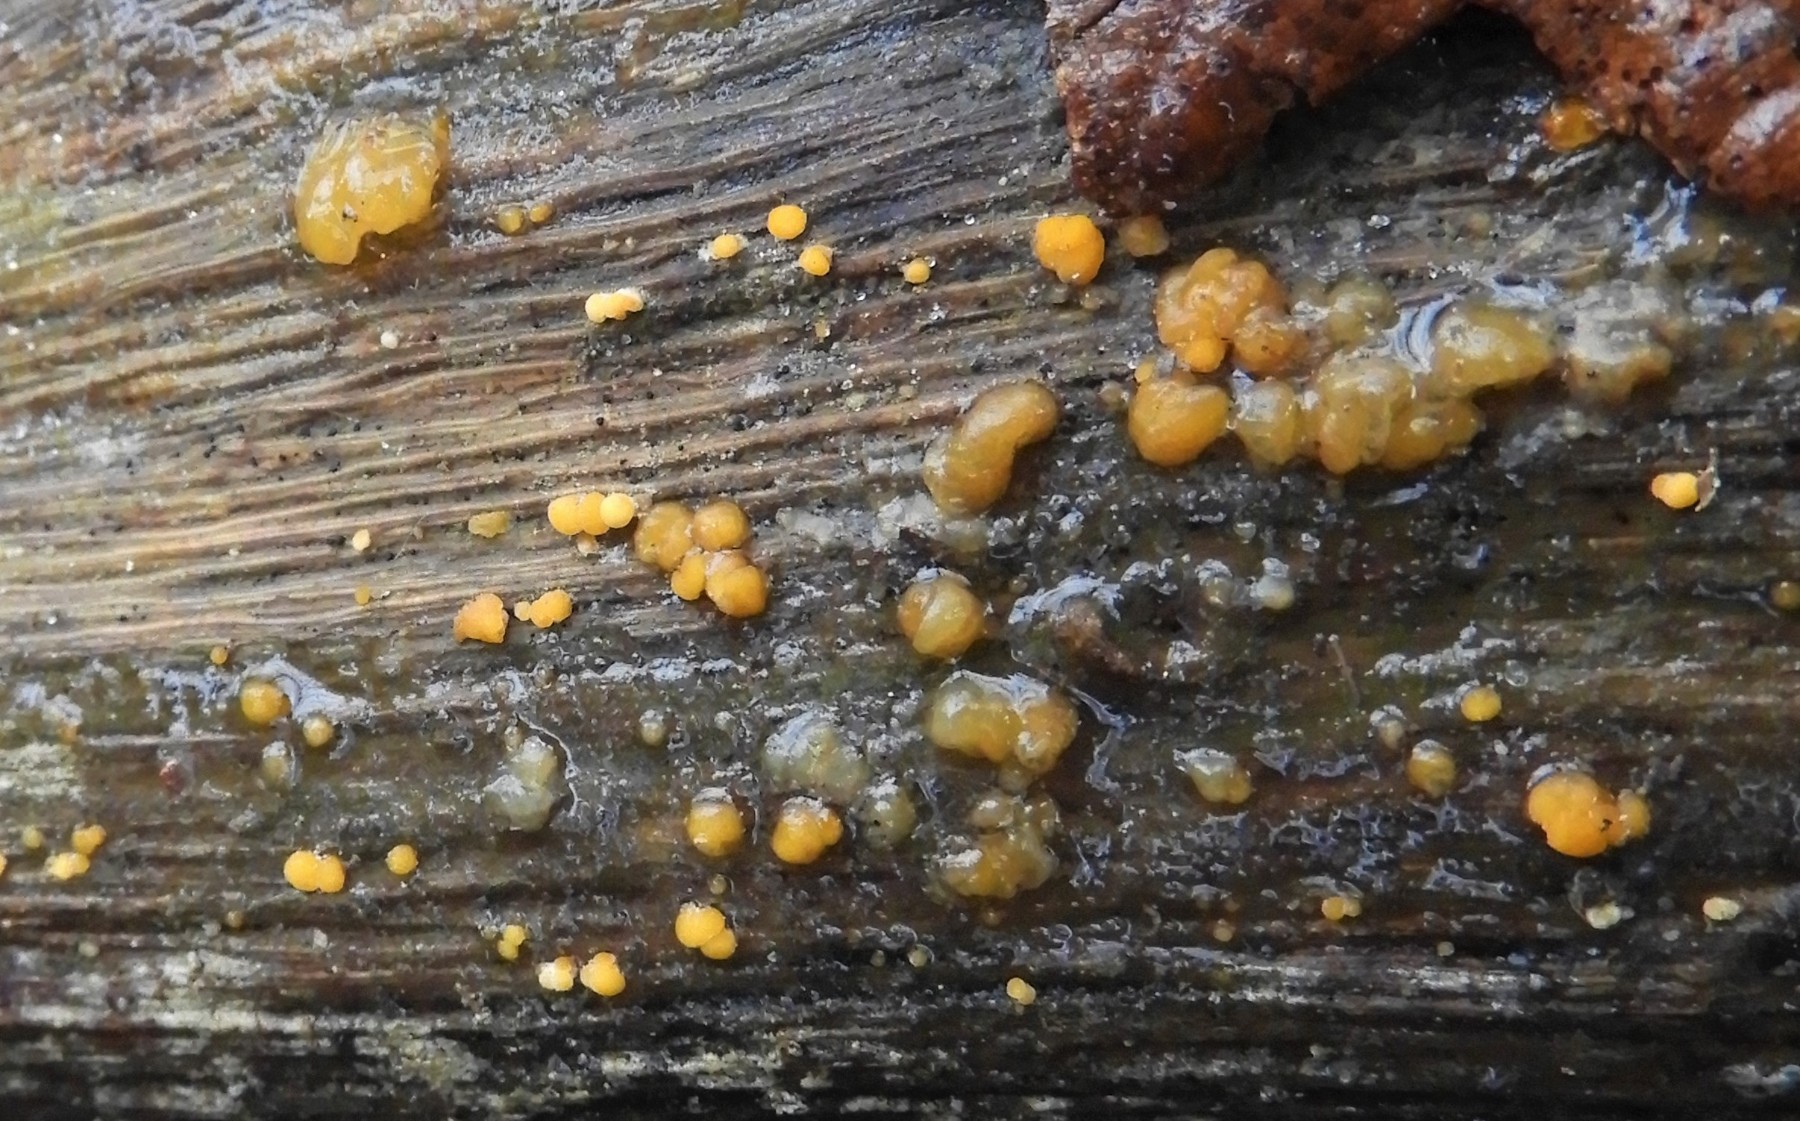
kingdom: Fungi
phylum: Basidiomycota
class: Dacrymycetes
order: Dacrymycetales
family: Dacrymycetaceae
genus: Dacrymyces
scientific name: Dacrymyces stillatus
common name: almindelig tåresvamp
